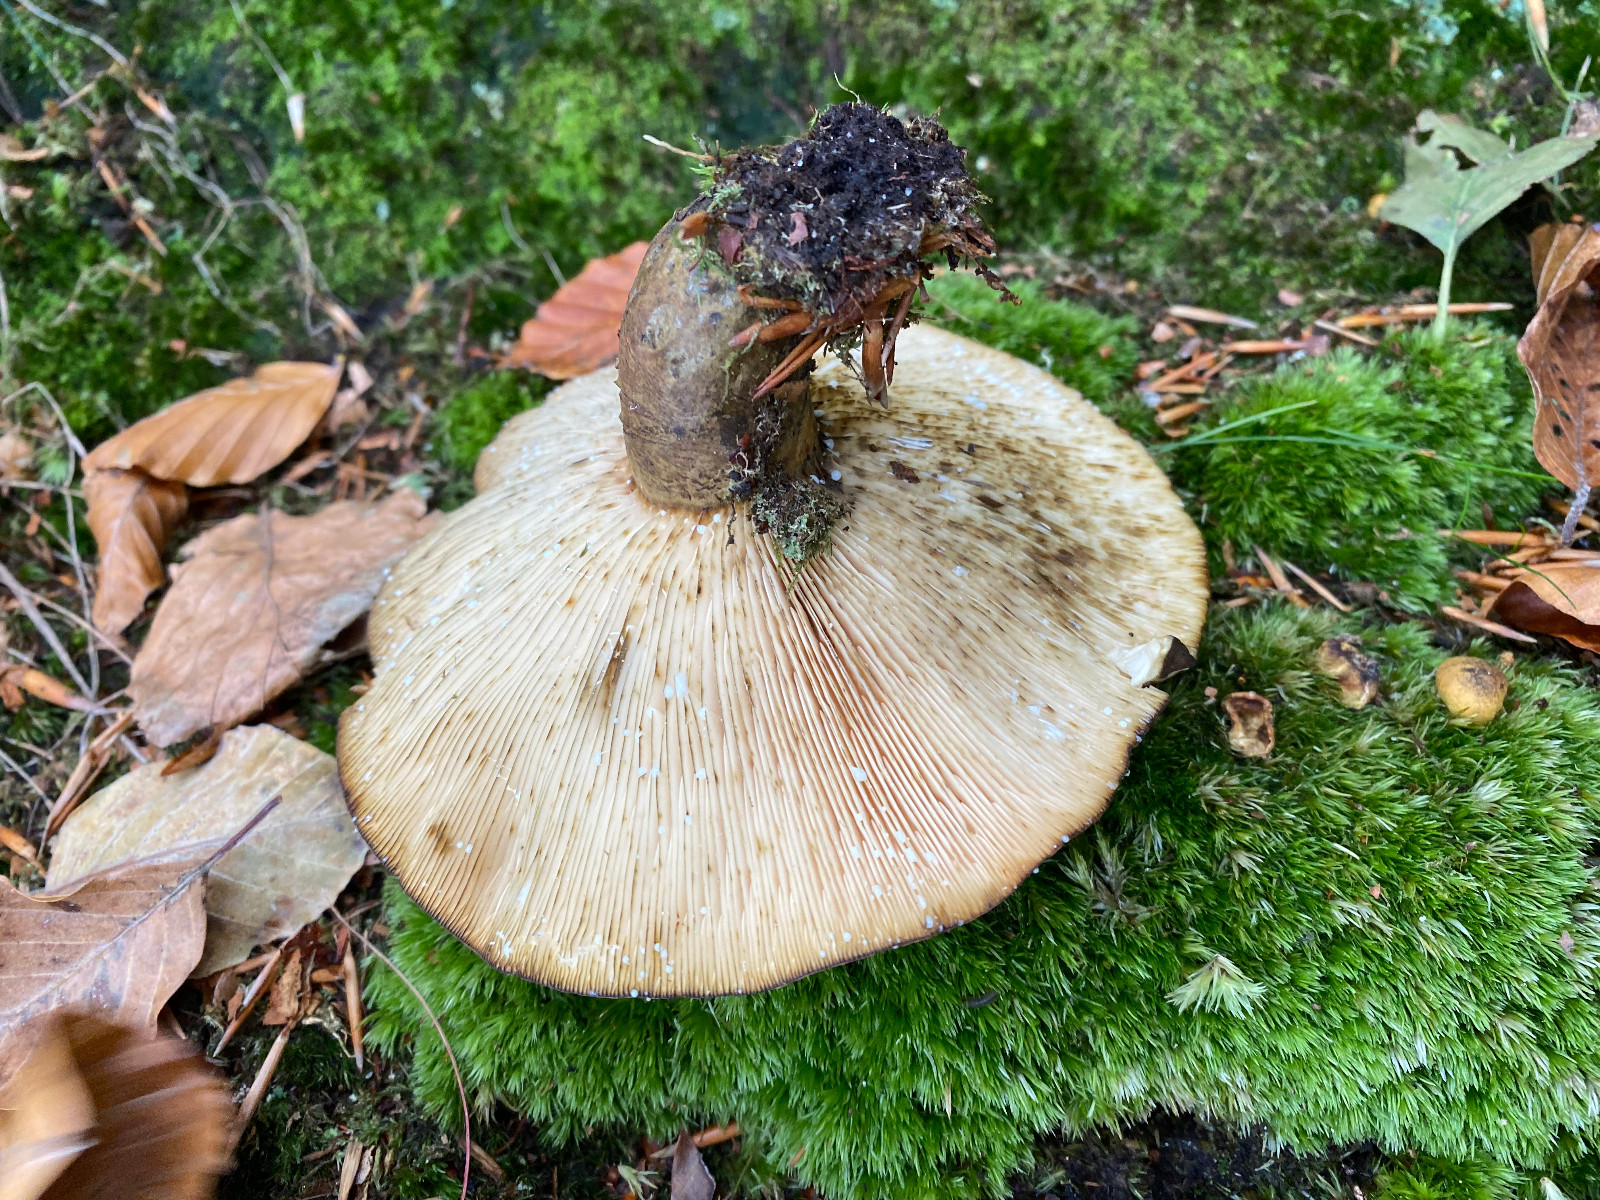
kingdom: Fungi
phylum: Basidiomycota
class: Agaricomycetes
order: Russulales
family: Russulaceae
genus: Lactarius
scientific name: Lactarius necator
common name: manddraber-mælkehat
